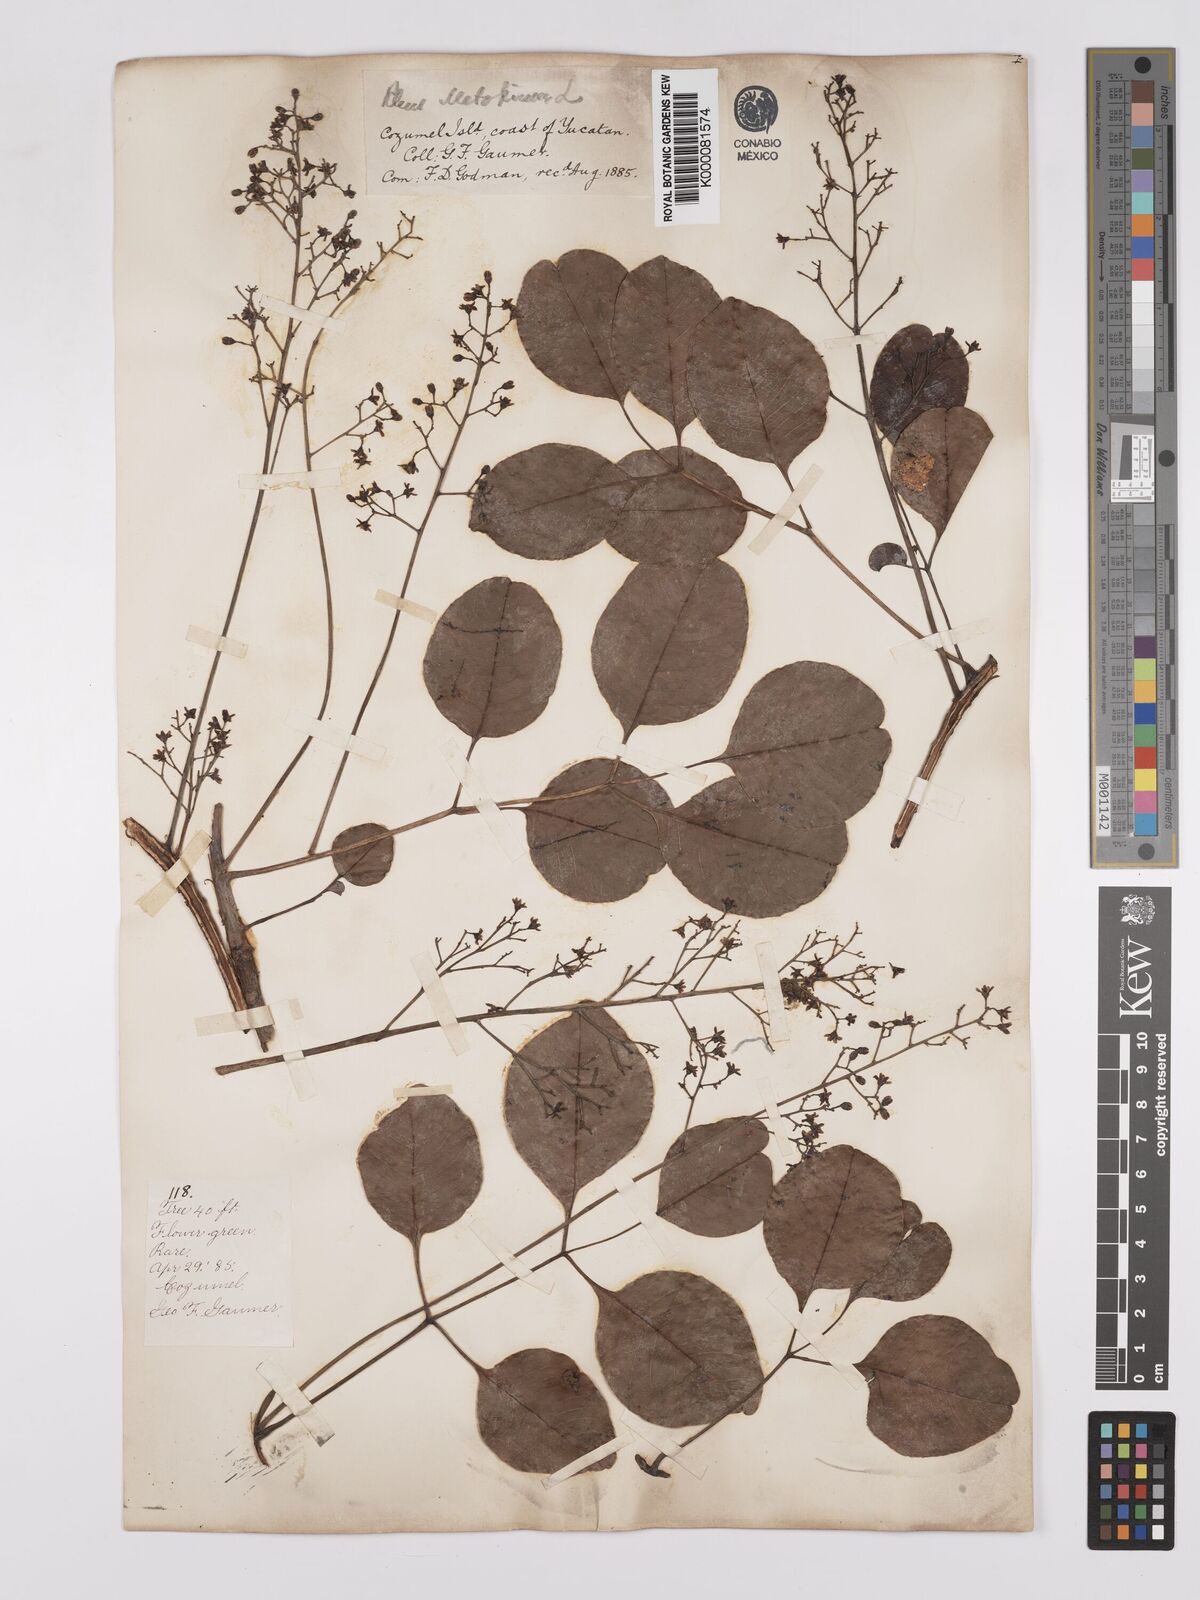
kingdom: Plantae
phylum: Tracheophyta
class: Magnoliopsida
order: Sapindales
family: Anacardiaceae
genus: Metopium
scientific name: Metopium brownei
